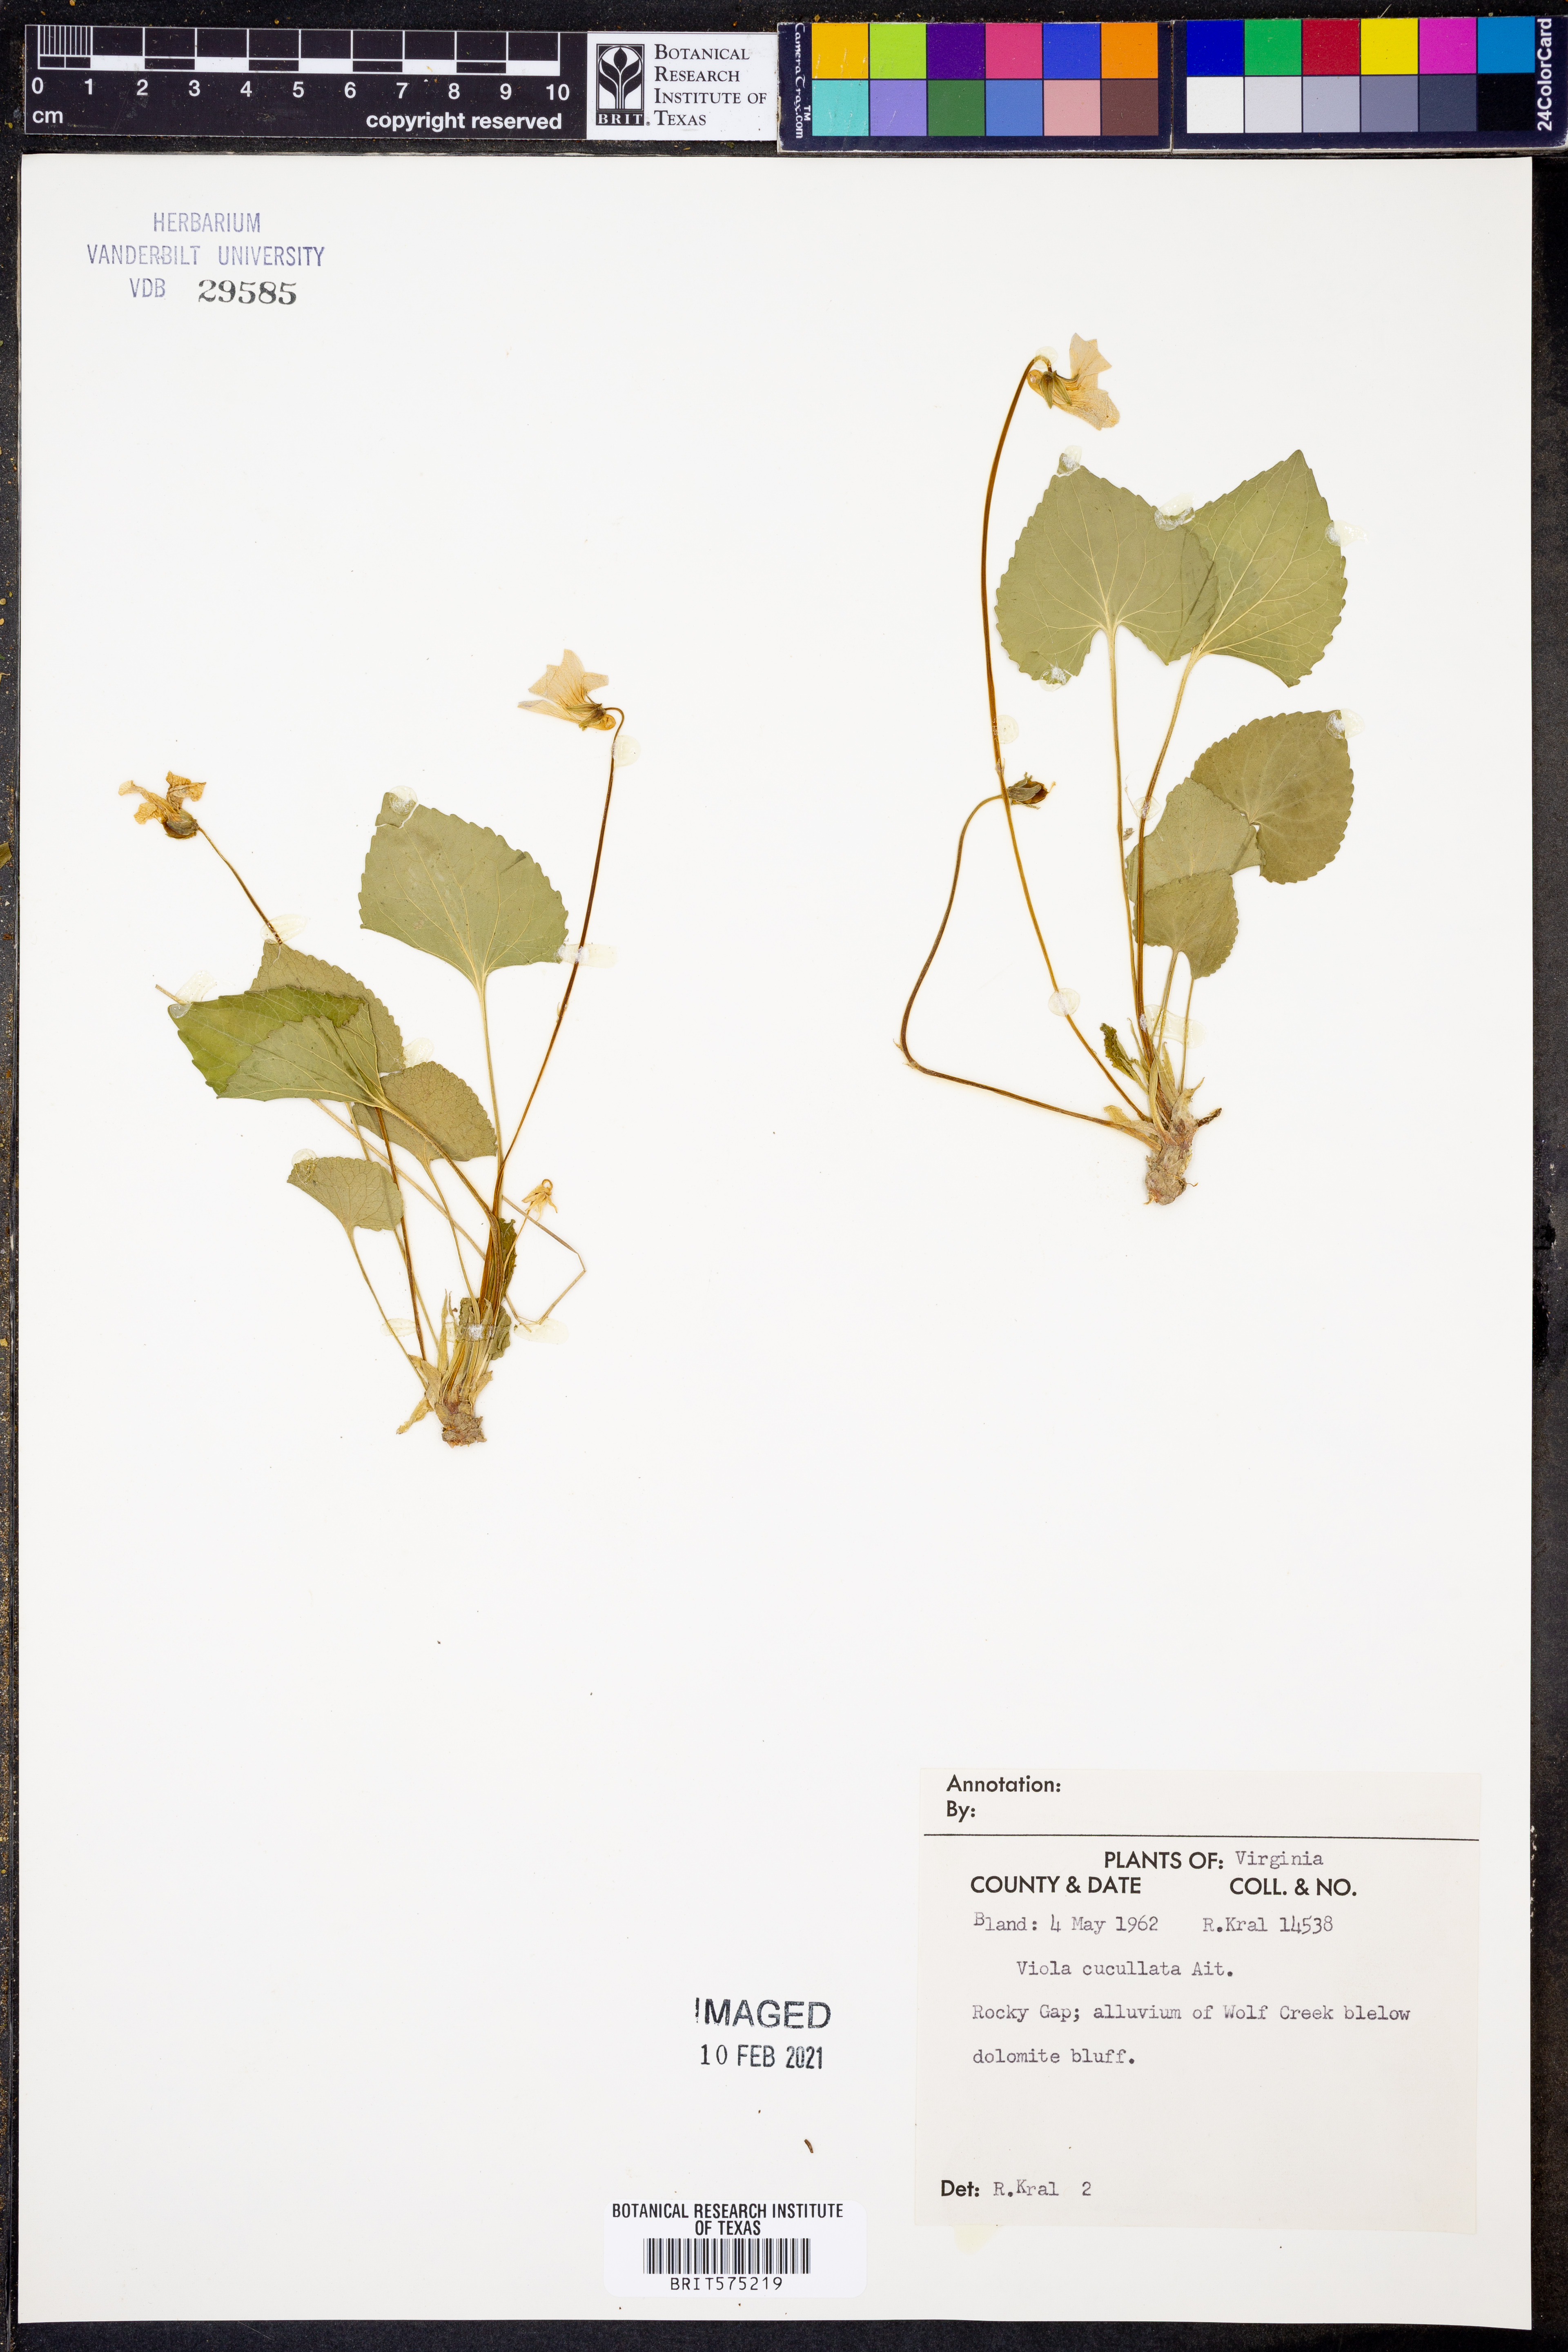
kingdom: Plantae
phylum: Tracheophyta
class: Magnoliopsida
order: Malpighiales
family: Violaceae
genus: Viola
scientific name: Viola cucullata
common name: Marsh blue violet
